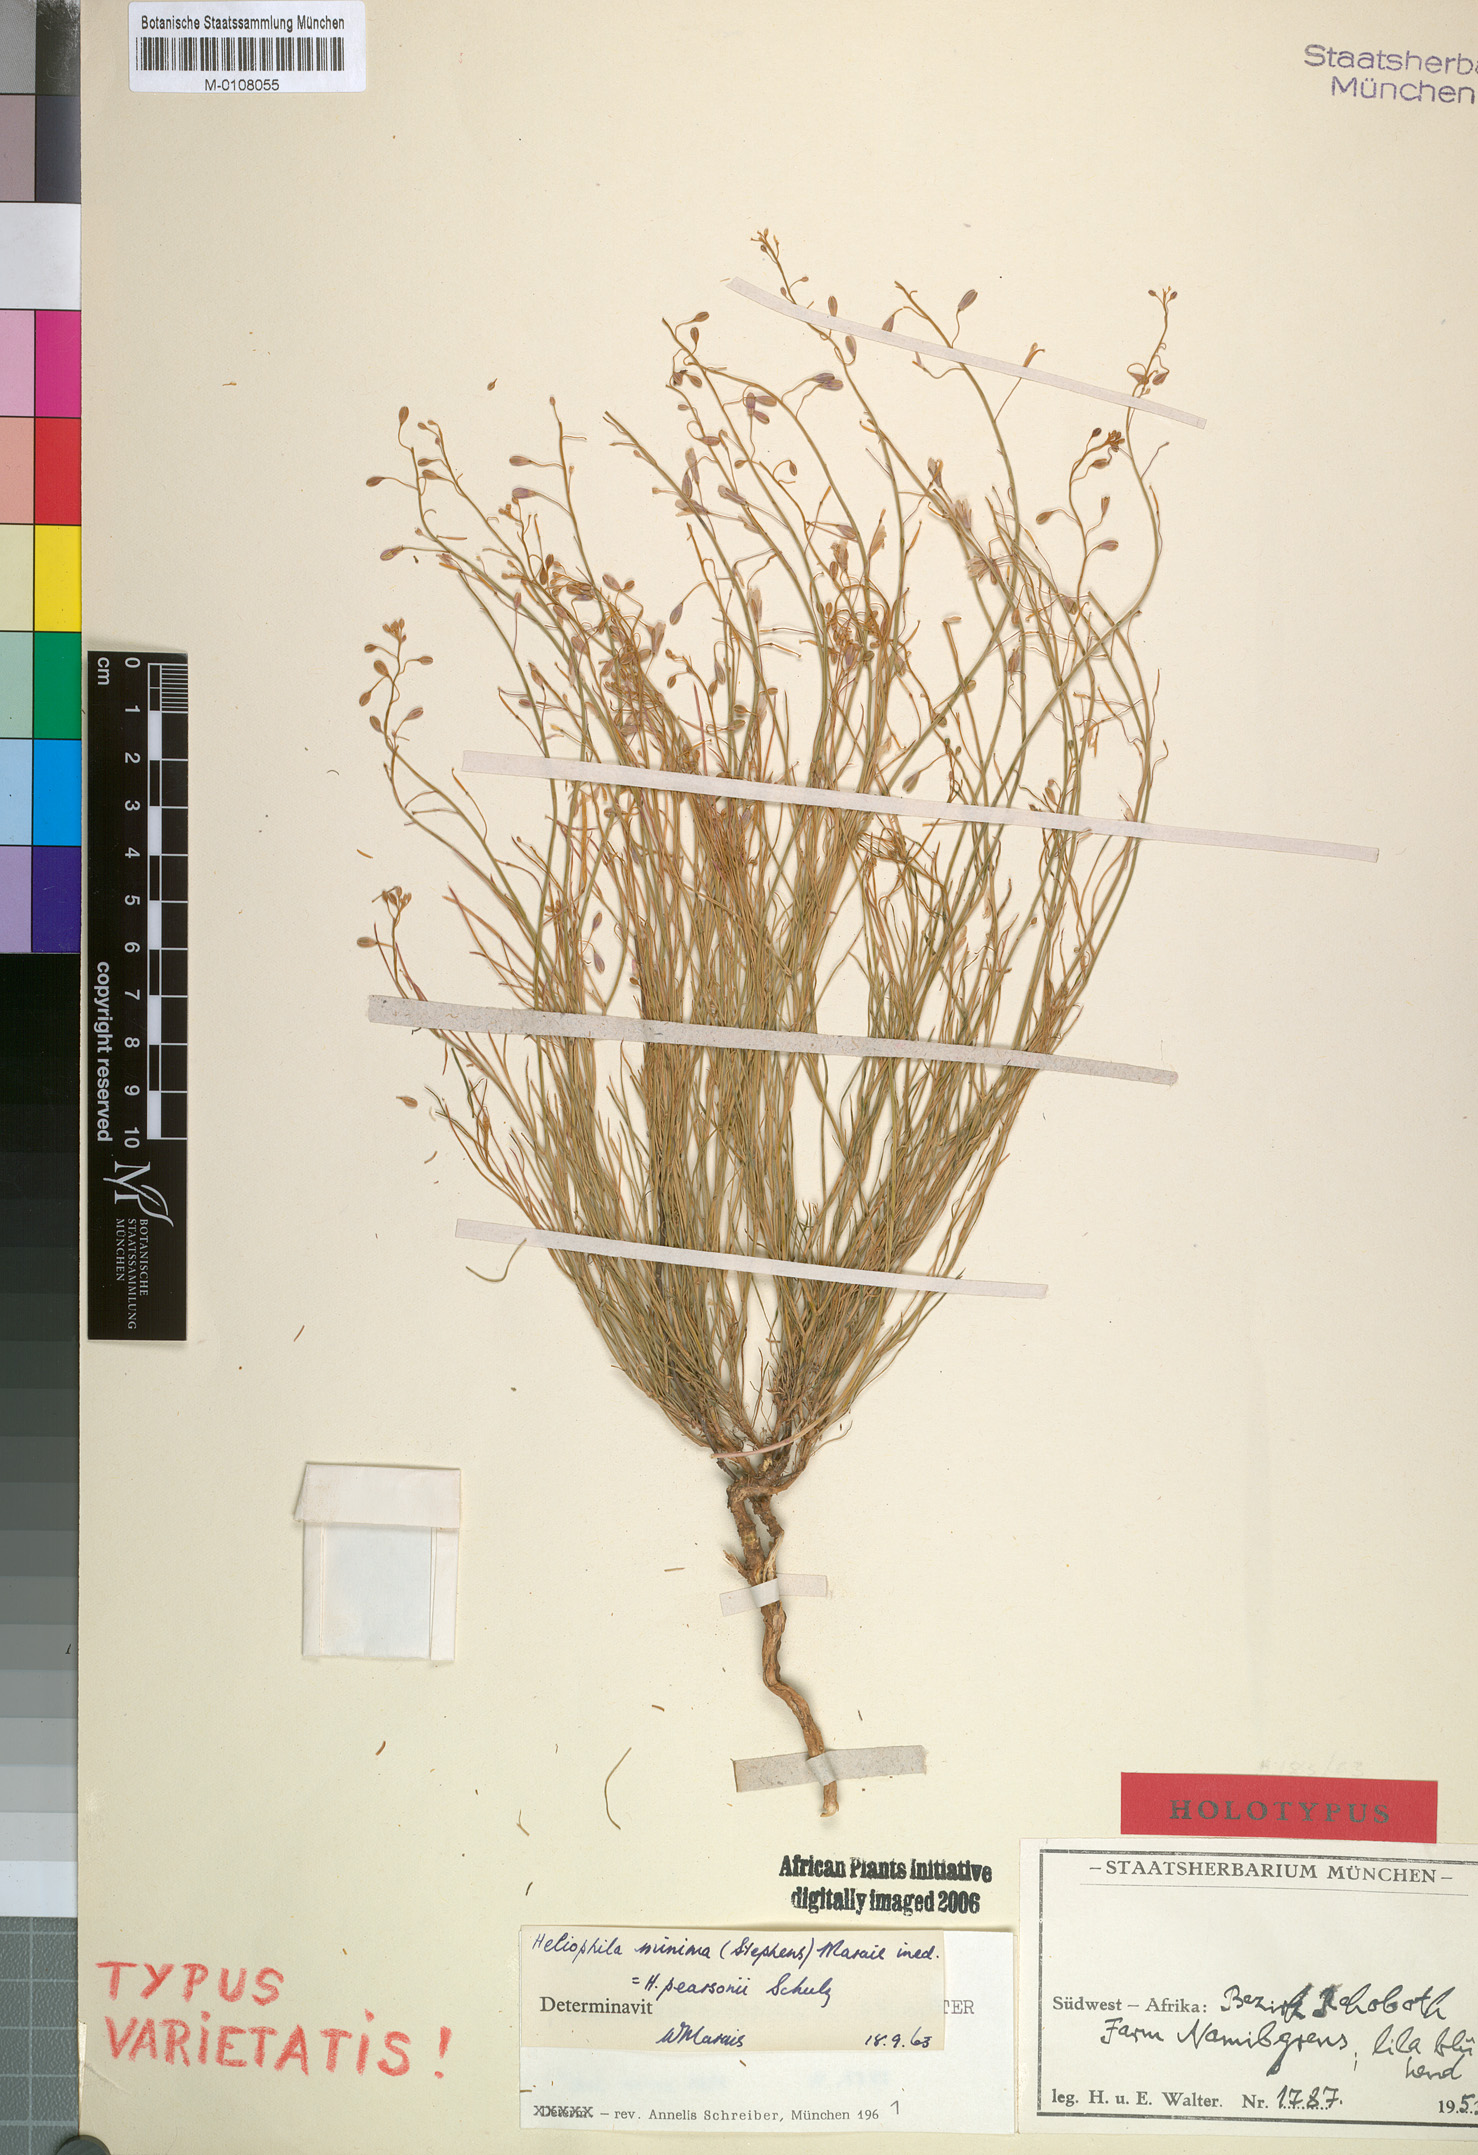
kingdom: Plantae
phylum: Tracheophyta
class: Magnoliopsida
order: Brassicales
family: Brassicaceae
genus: Heliophila
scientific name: Heliophila minima
